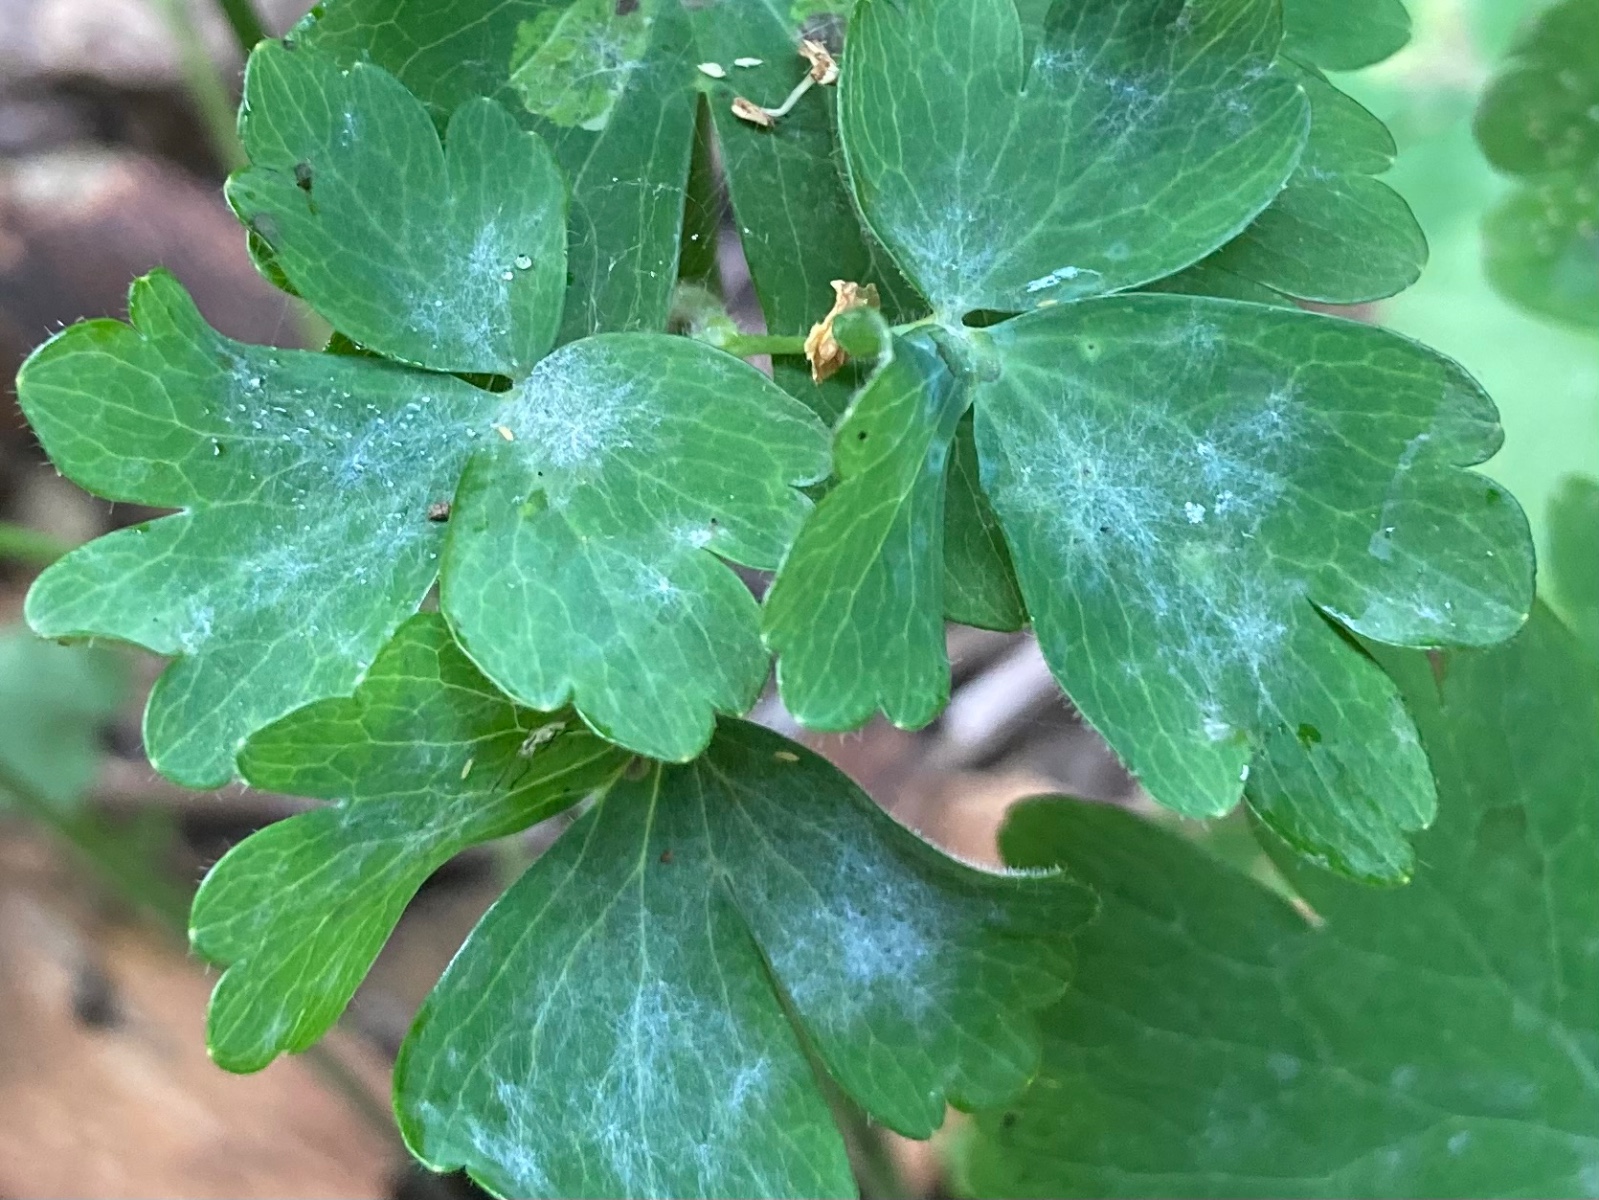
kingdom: Fungi
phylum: Ascomycota
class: Leotiomycetes
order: Helotiales
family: Erysiphaceae
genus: Erysiphe
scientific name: Erysiphe aquilegiae
